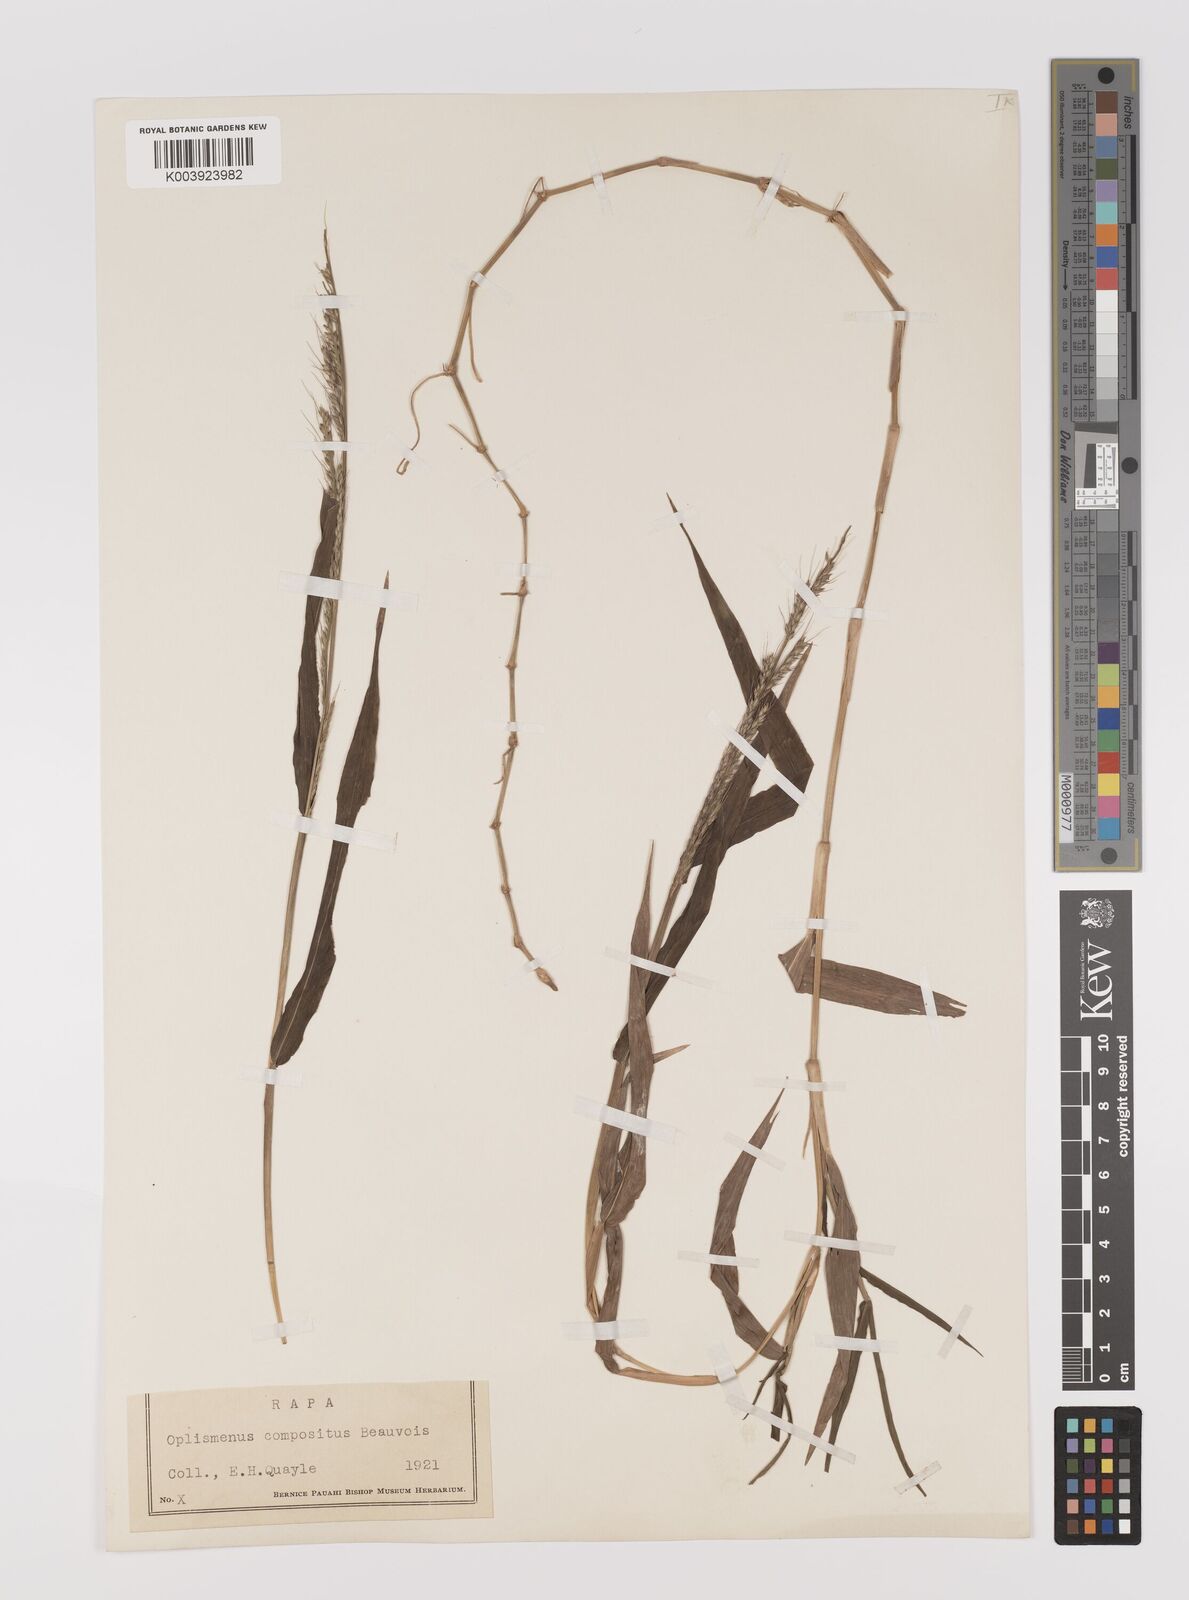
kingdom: Plantae
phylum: Tracheophyta
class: Liliopsida
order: Poales
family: Poaceae
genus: Oplismenus
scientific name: Oplismenus compositus
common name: Running mountain grass
